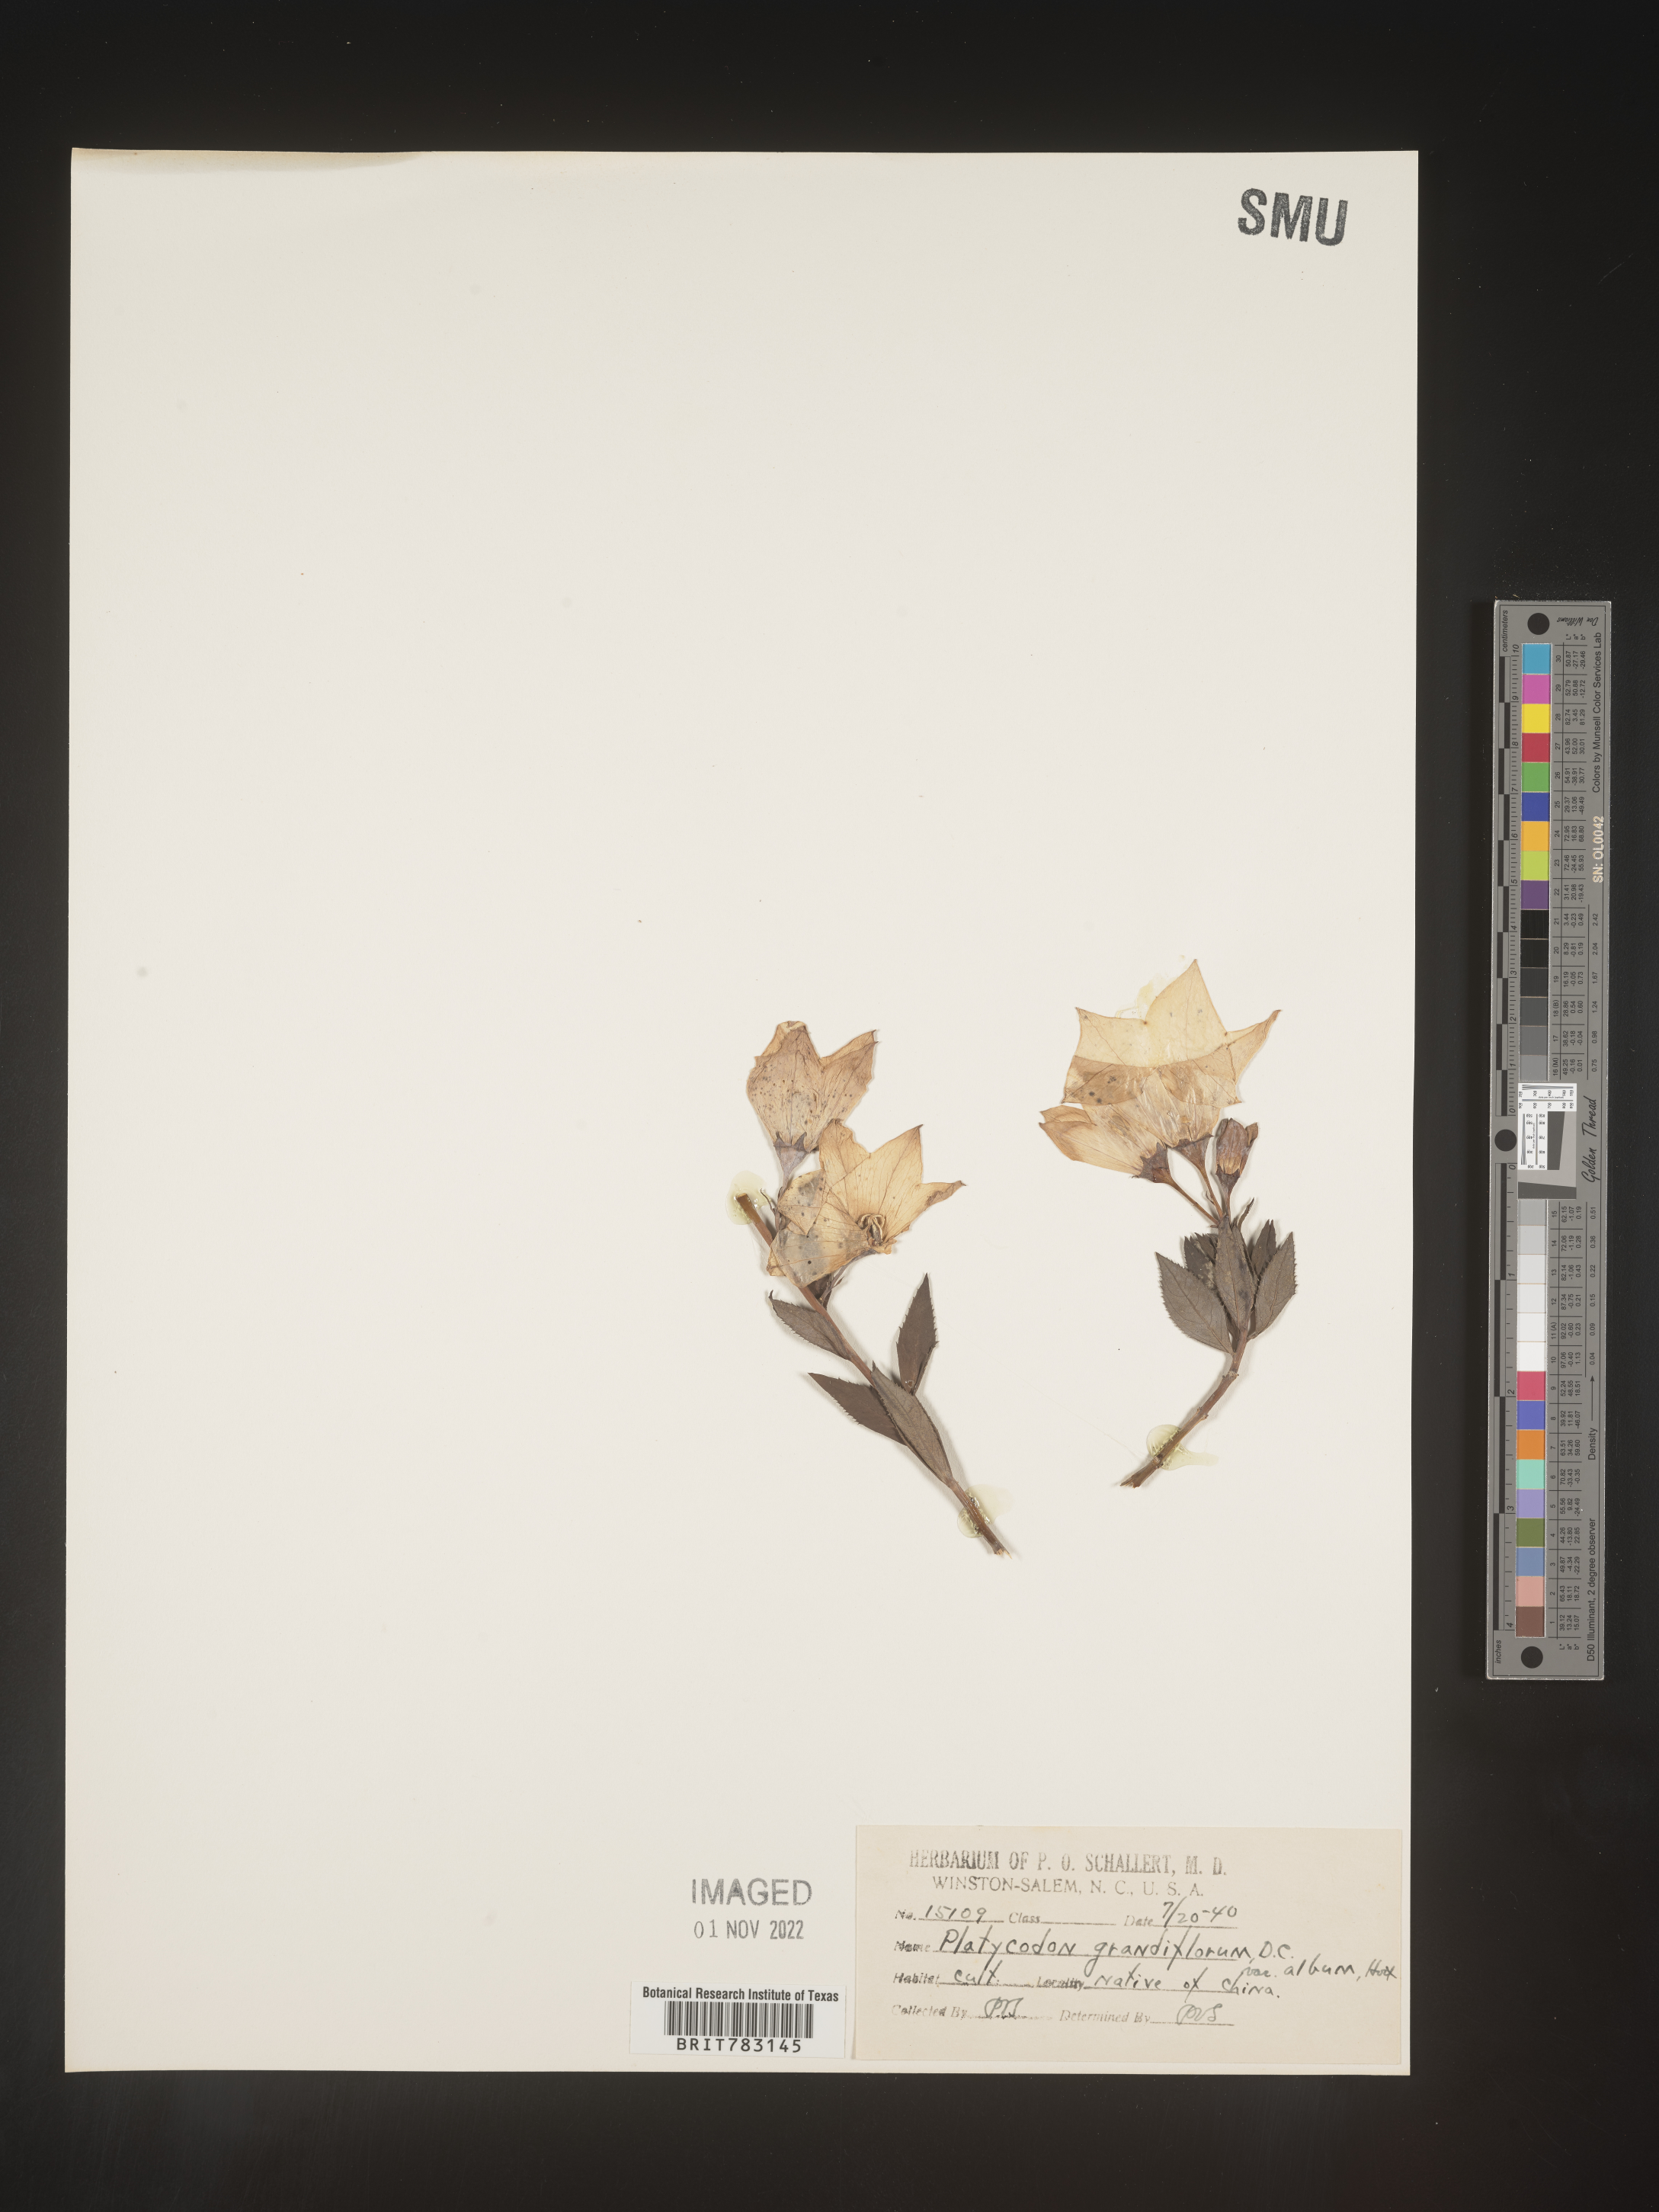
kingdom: Plantae
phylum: Tracheophyta
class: Magnoliopsida
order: Asterales
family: Campanulaceae
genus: Platycodon
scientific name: Platycodon
